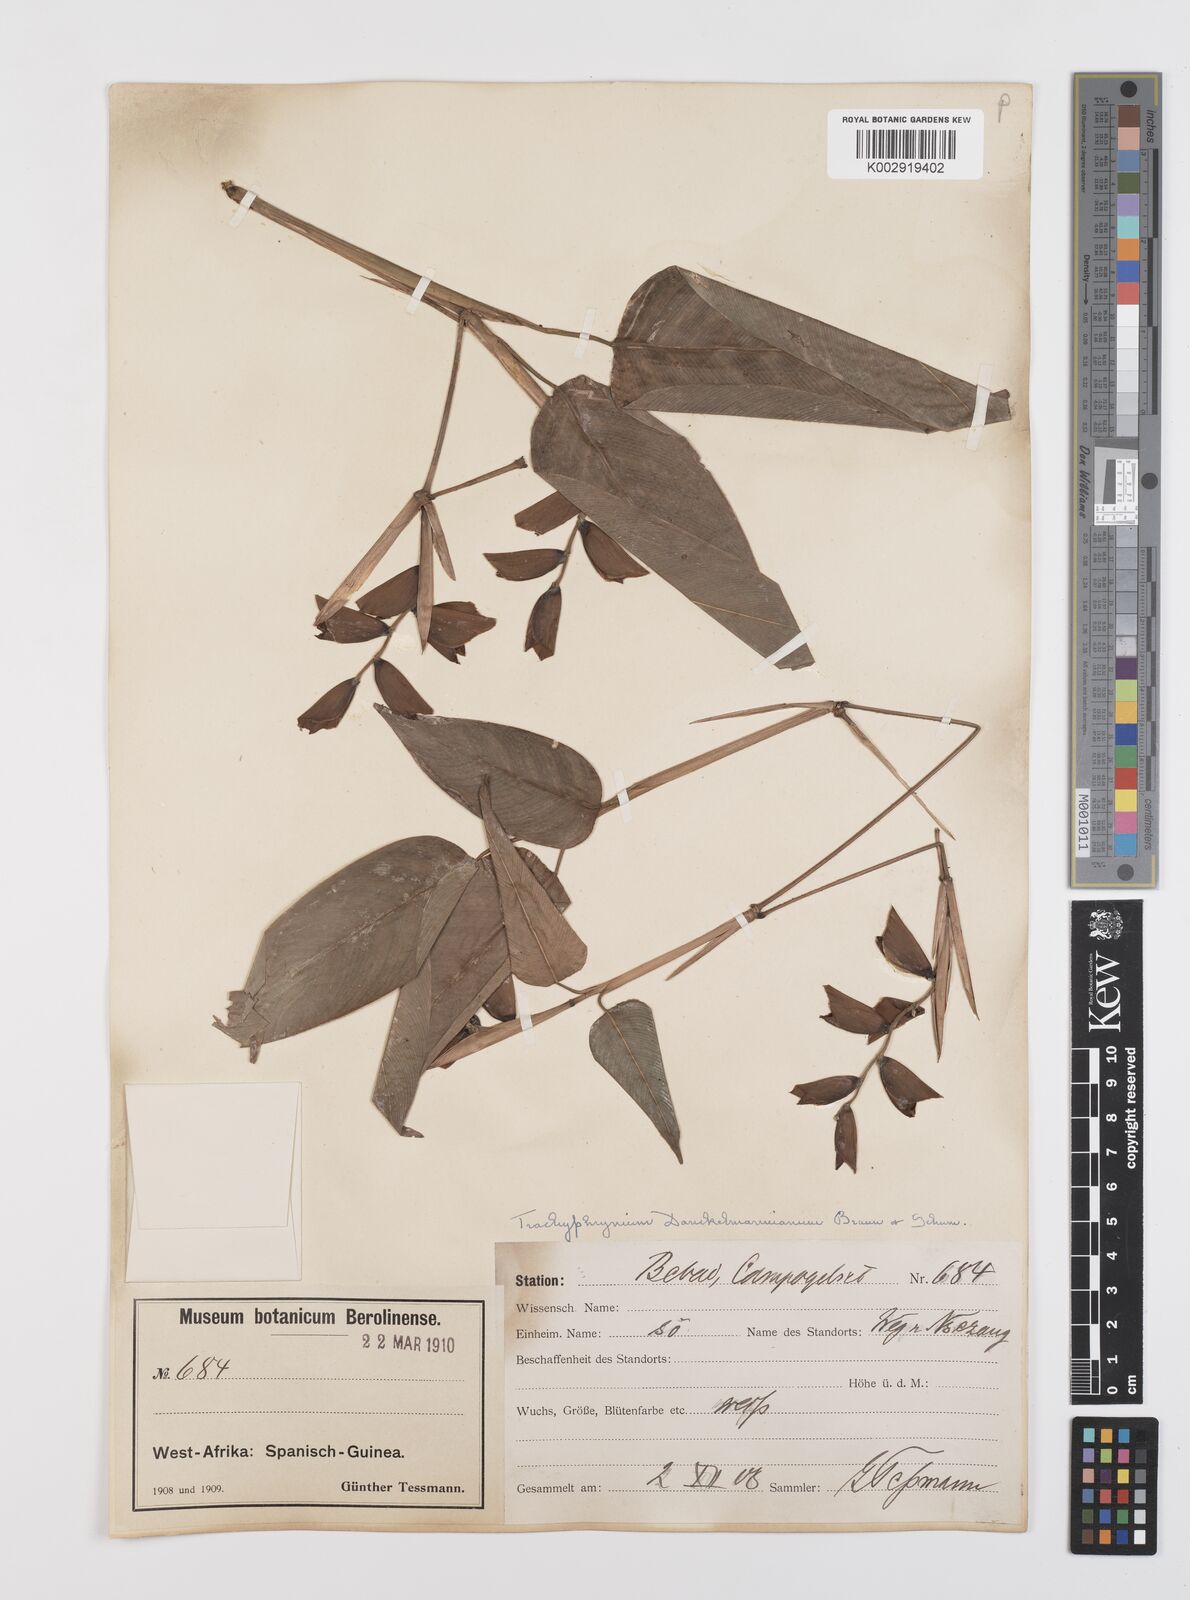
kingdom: Plantae
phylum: Tracheophyta
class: Liliopsida
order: Zingiberales
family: Marantaceae
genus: Haumania
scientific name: Haumania danckelmaniana
